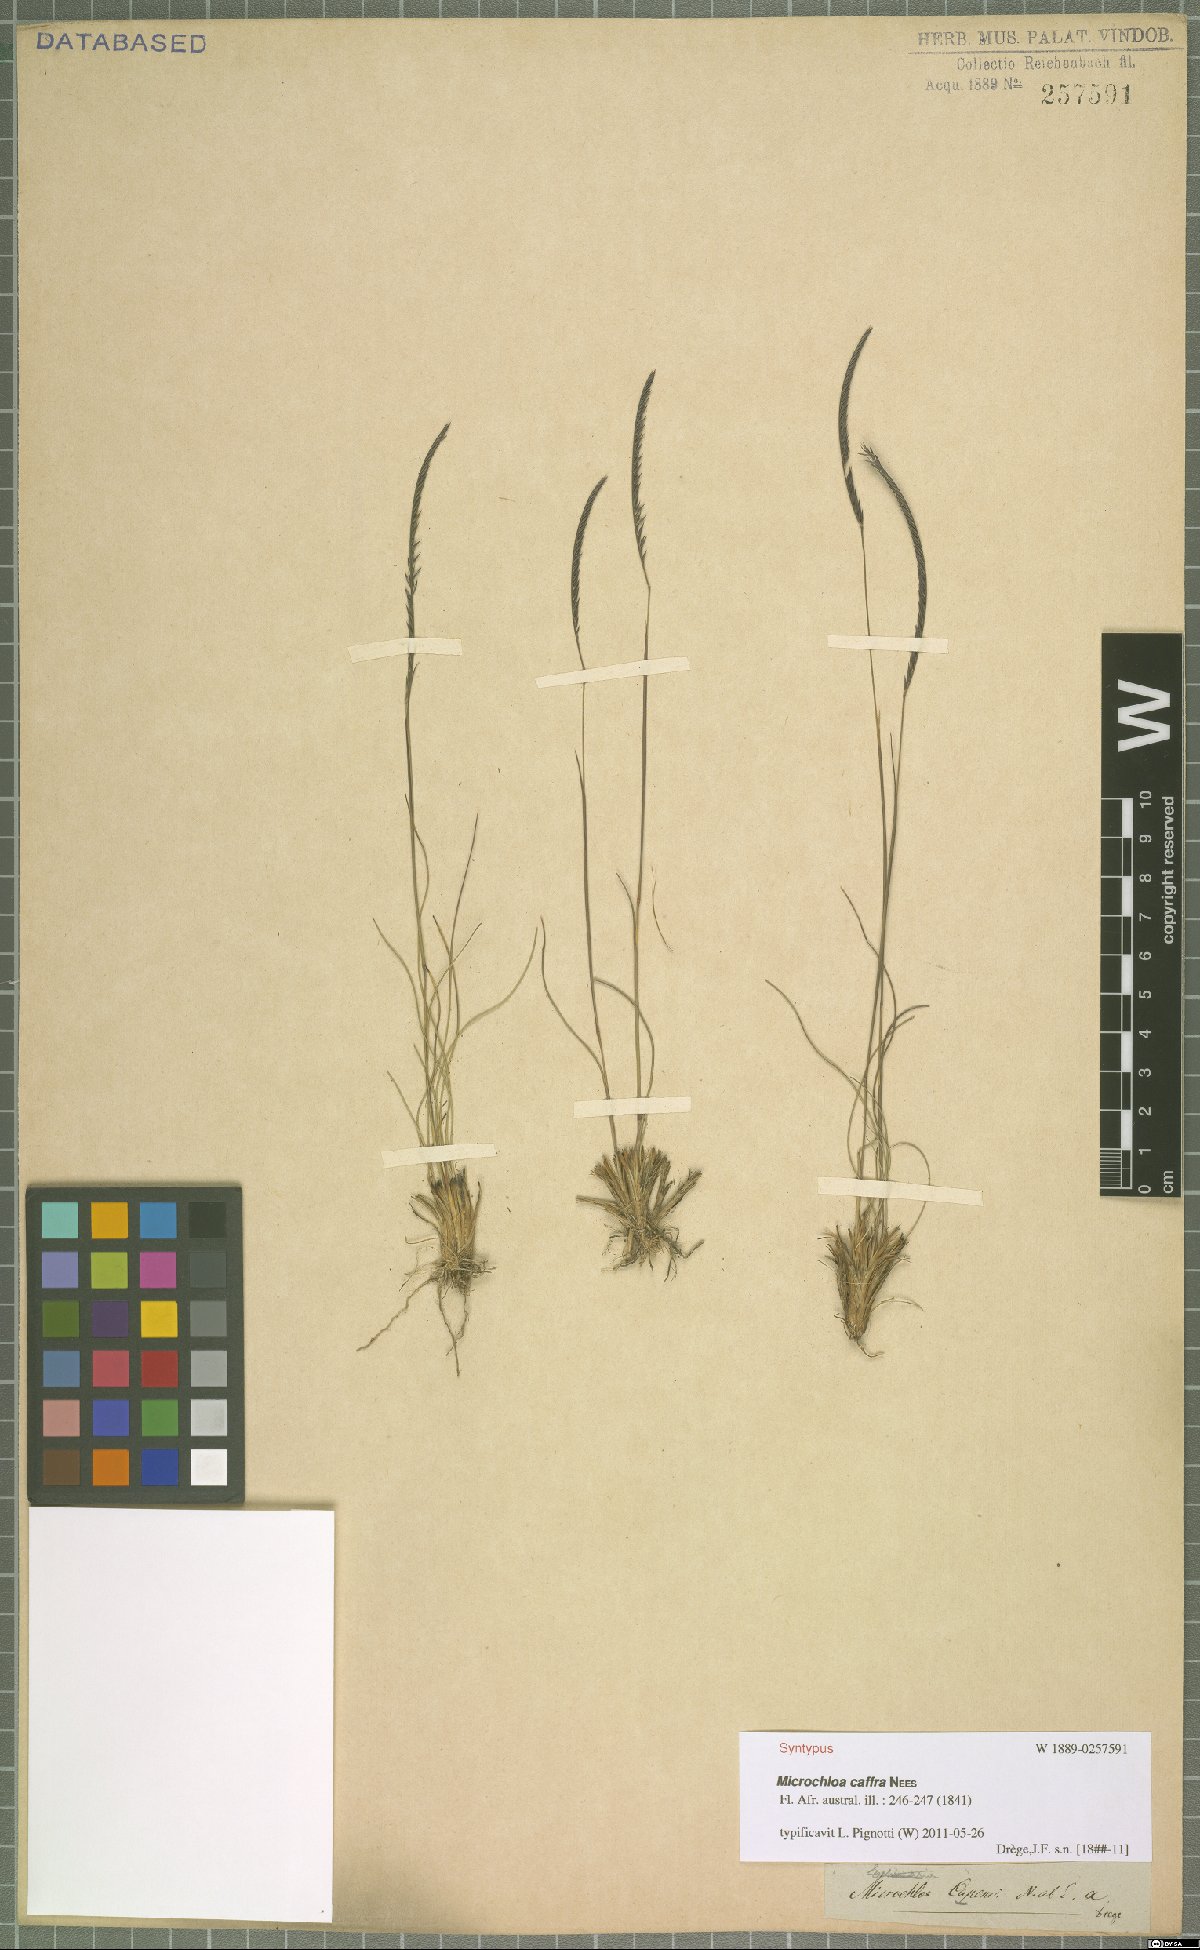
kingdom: Plantae
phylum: Tracheophyta
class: Liliopsida
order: Poales
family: Poaceae
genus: Microchloa
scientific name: Microchloa caffra
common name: Pincushion grass
